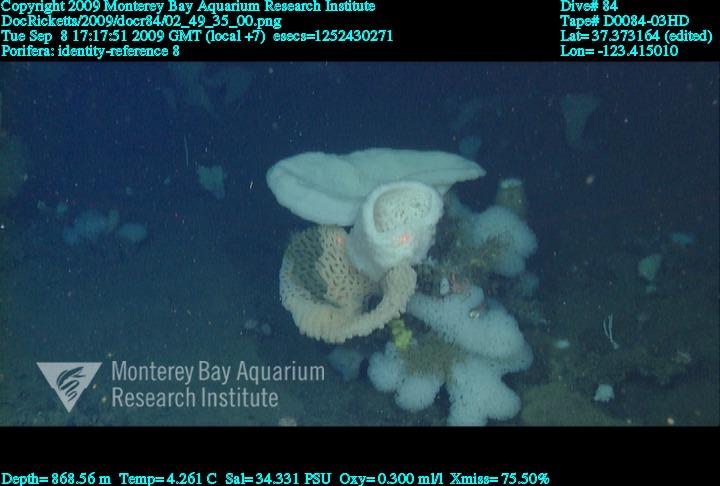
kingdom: Animalia
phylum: Porifera
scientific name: Porifera
